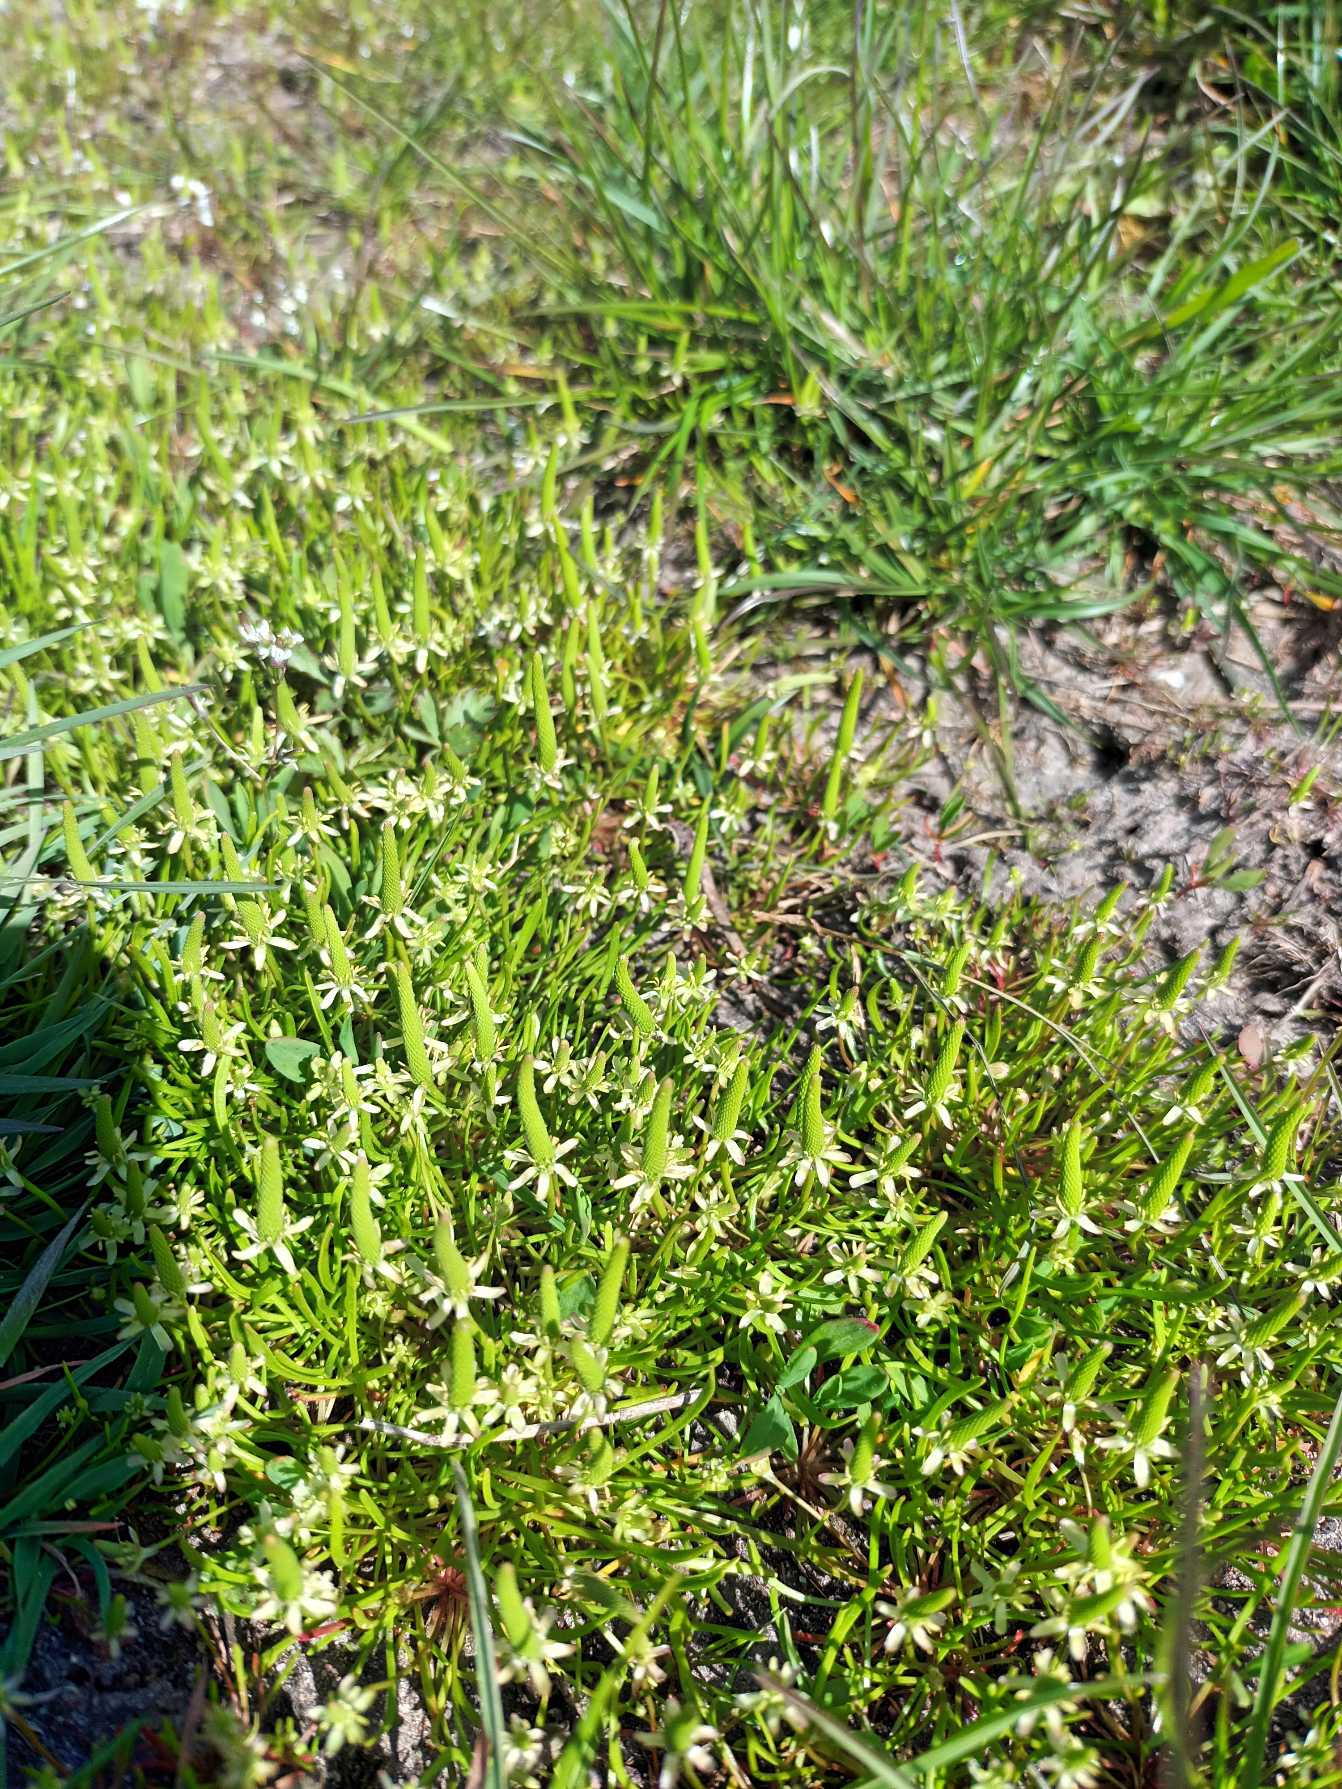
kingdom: Plantae
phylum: Tracheophyta
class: Magnoliopsida
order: Ranunculales
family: Ranunculaceae
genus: Myosurus
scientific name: Myosurus minimus
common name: Musehale
